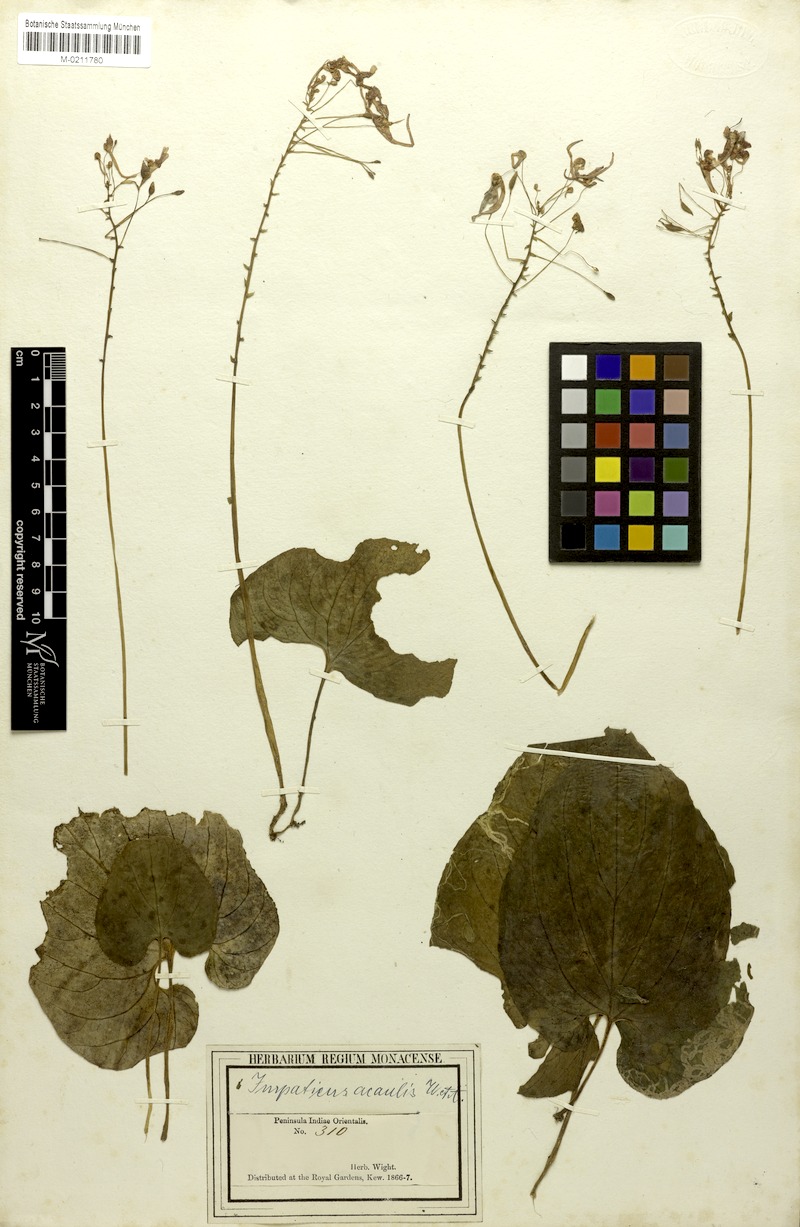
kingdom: Plantae
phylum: Tracheophyta
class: Magnoliopsida
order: Ericales
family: Balsaminaceae
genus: Impatiens
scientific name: Impatiens scapiflora
